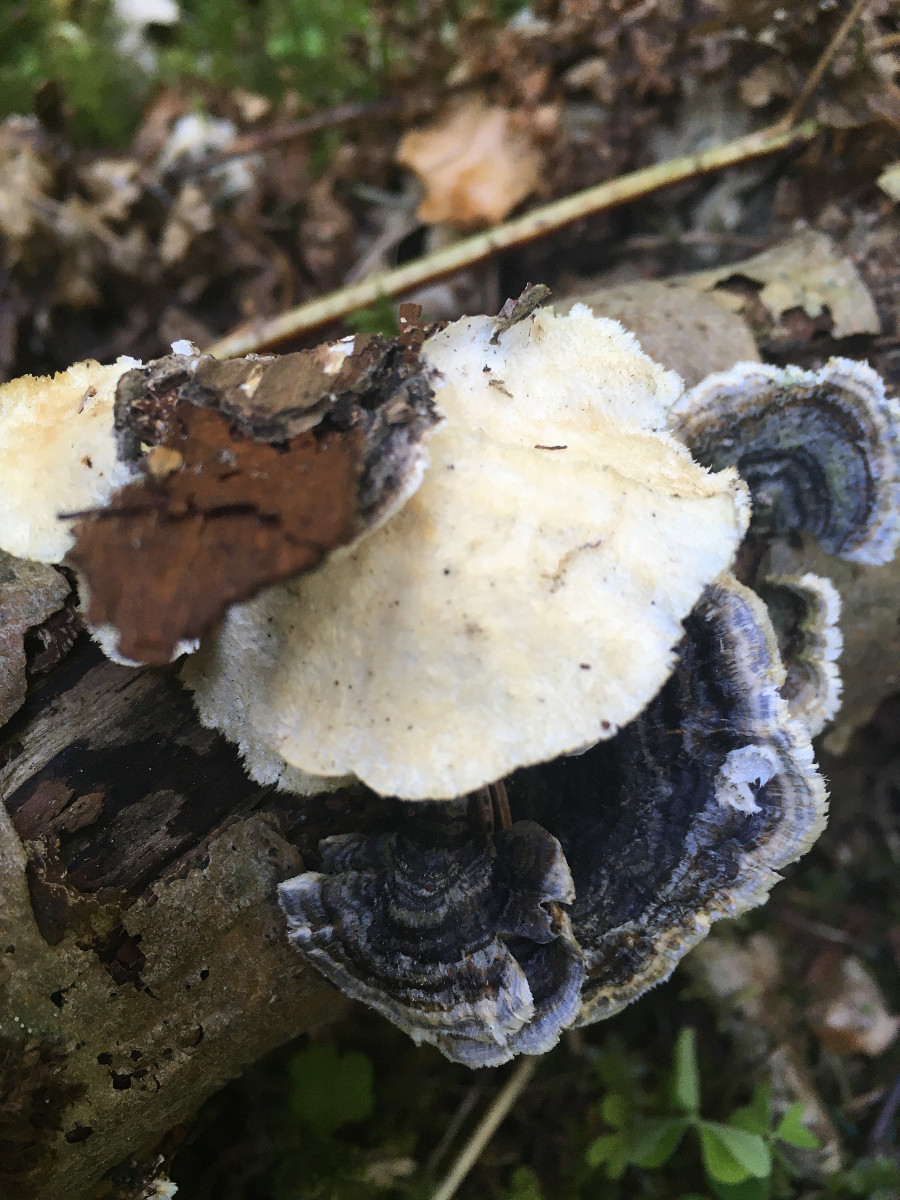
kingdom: Fungi
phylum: Basidiomycota
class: Agaricomycetes
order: Polyporales
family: Polyporaceae
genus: Trametes
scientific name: Trametes versicolor
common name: broget læderporesvamp
